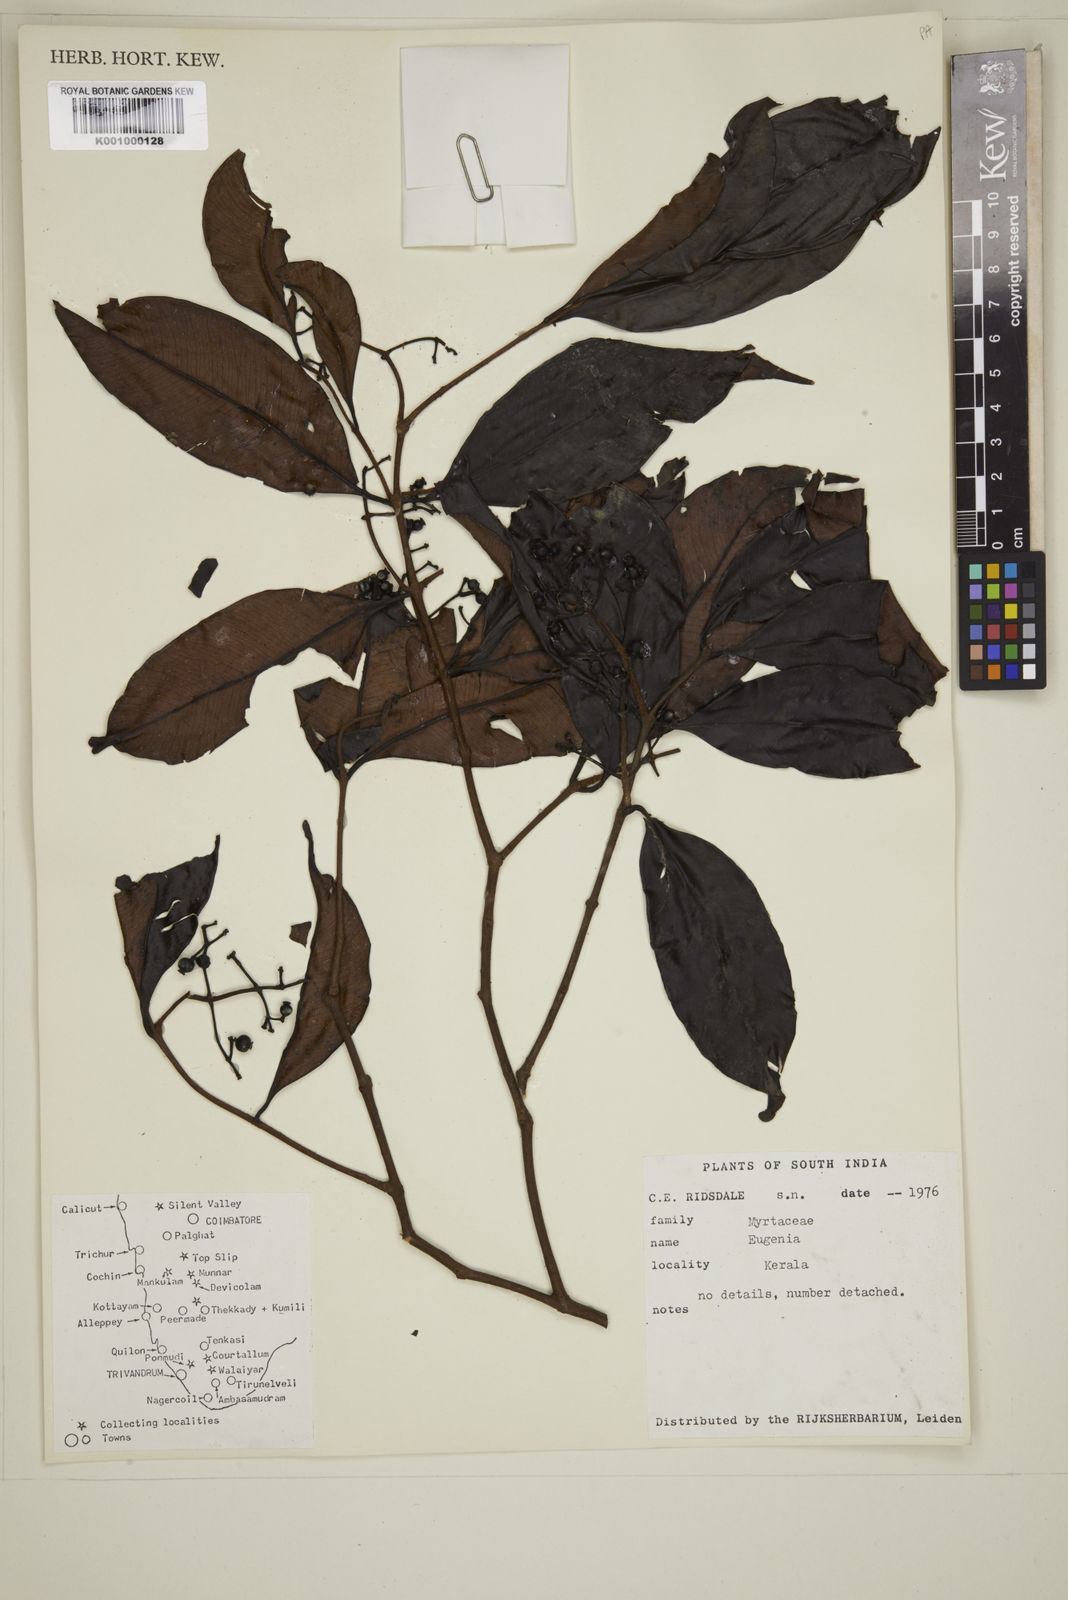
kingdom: Plantae
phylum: Tracheophyta
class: Magnoliopsida
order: Myrtales
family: Myrtaceae
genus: Eugenia
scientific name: Eugenia
